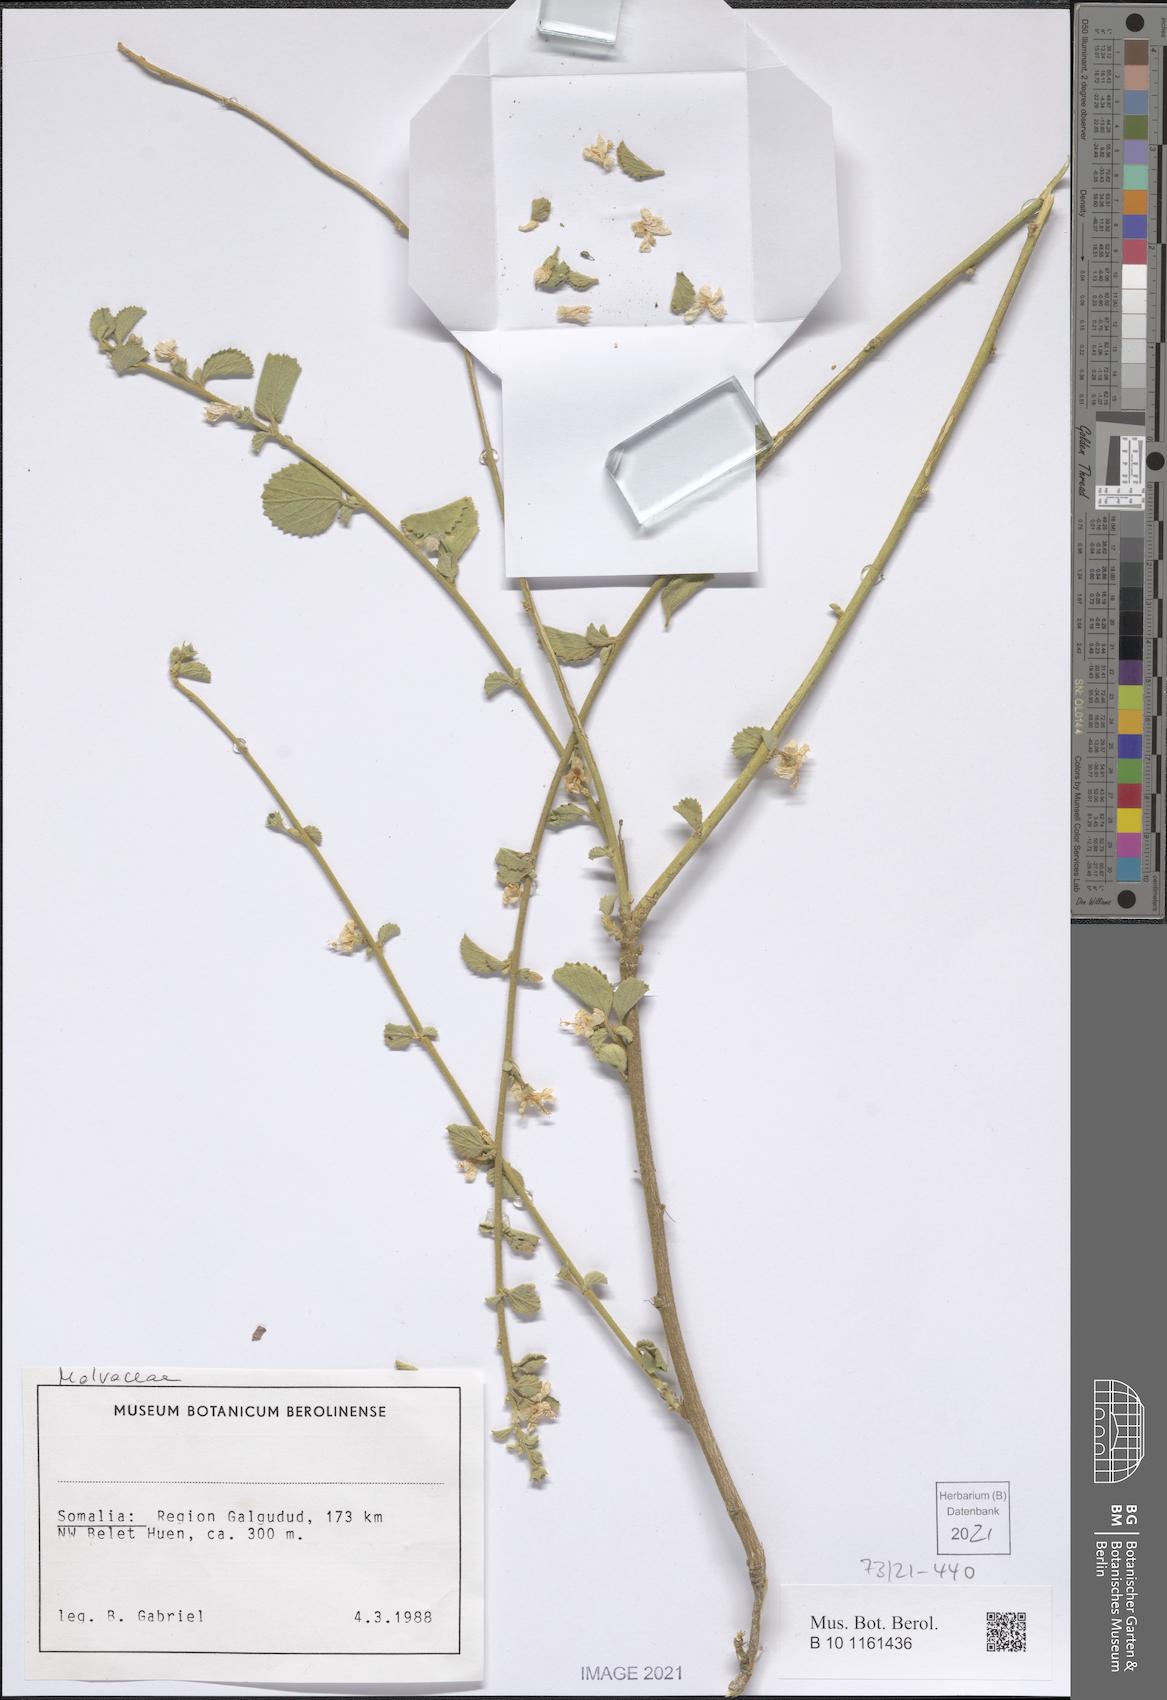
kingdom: Plantae
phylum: Tracheophyta
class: Magnoliopsida
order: Malvales
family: Malvaceae
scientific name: Malvaceae
